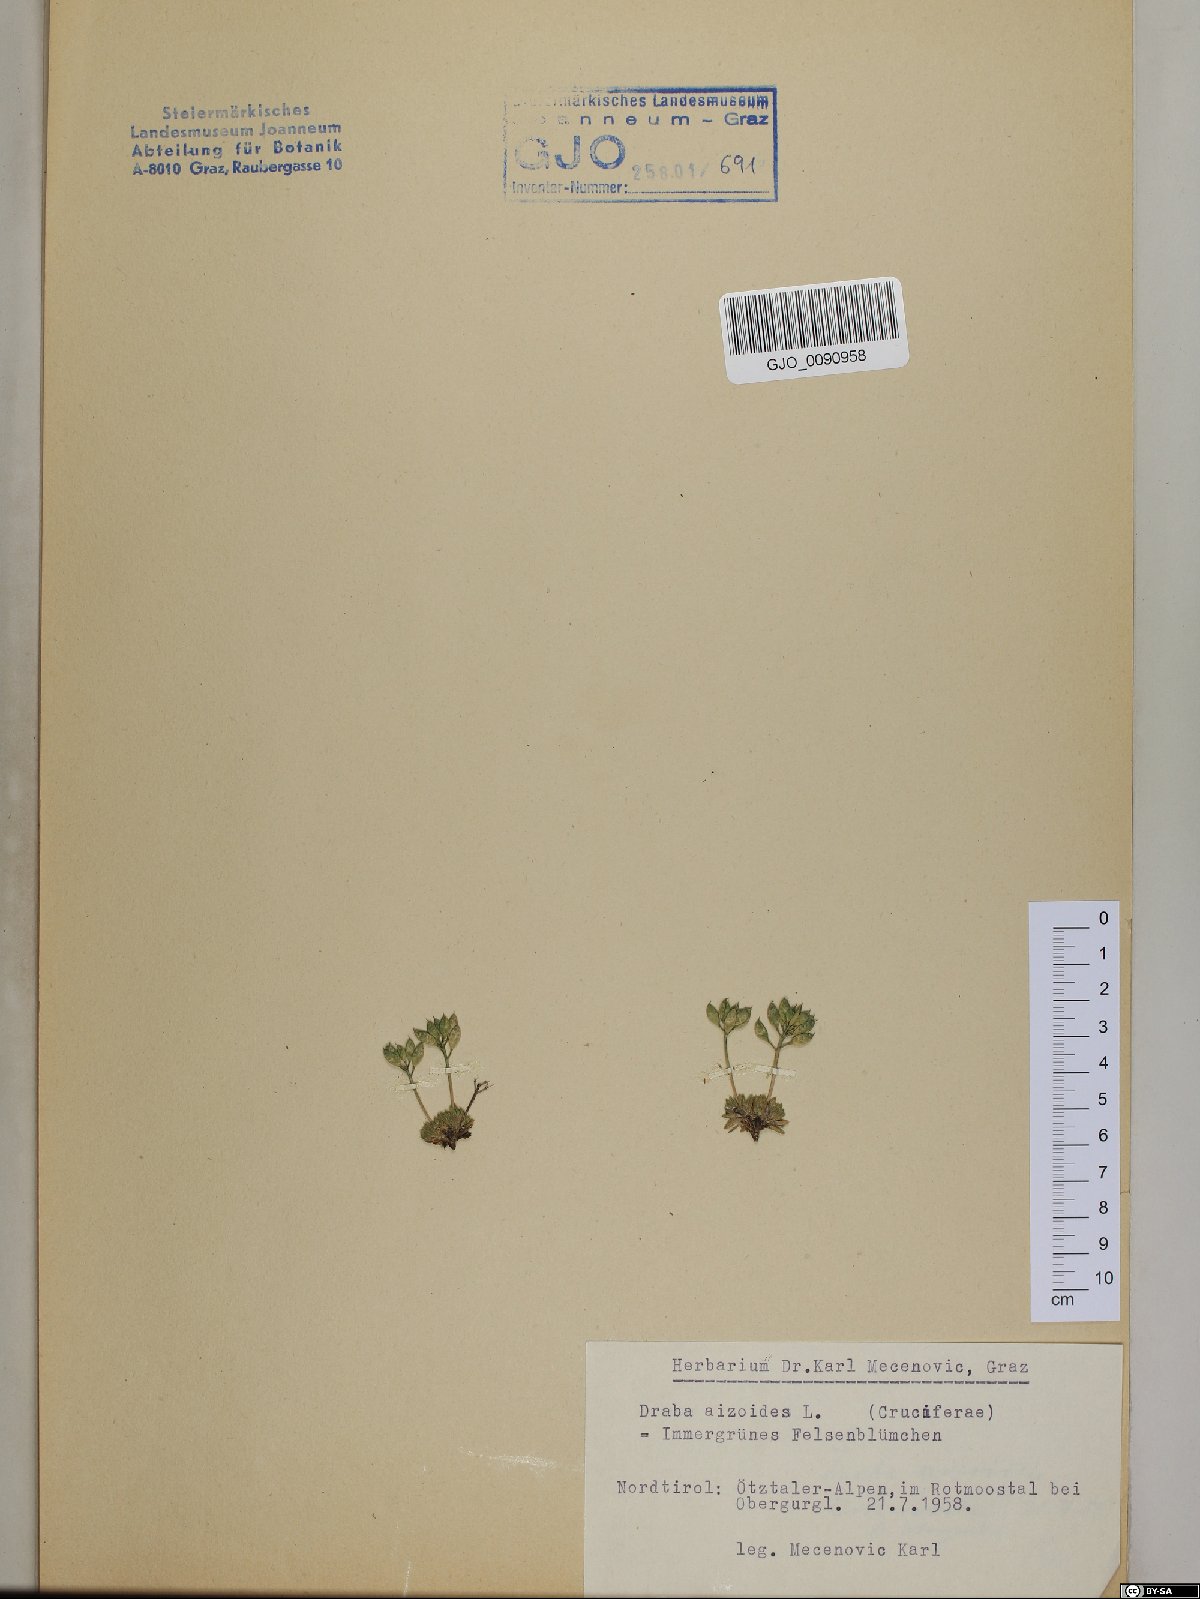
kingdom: Plantae
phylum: Tracheophyta
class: Magnoliopsida
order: Brassicales
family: Brassicaceae
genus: Draba
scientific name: Draba aizoides
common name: Yellow whitlowgrass
